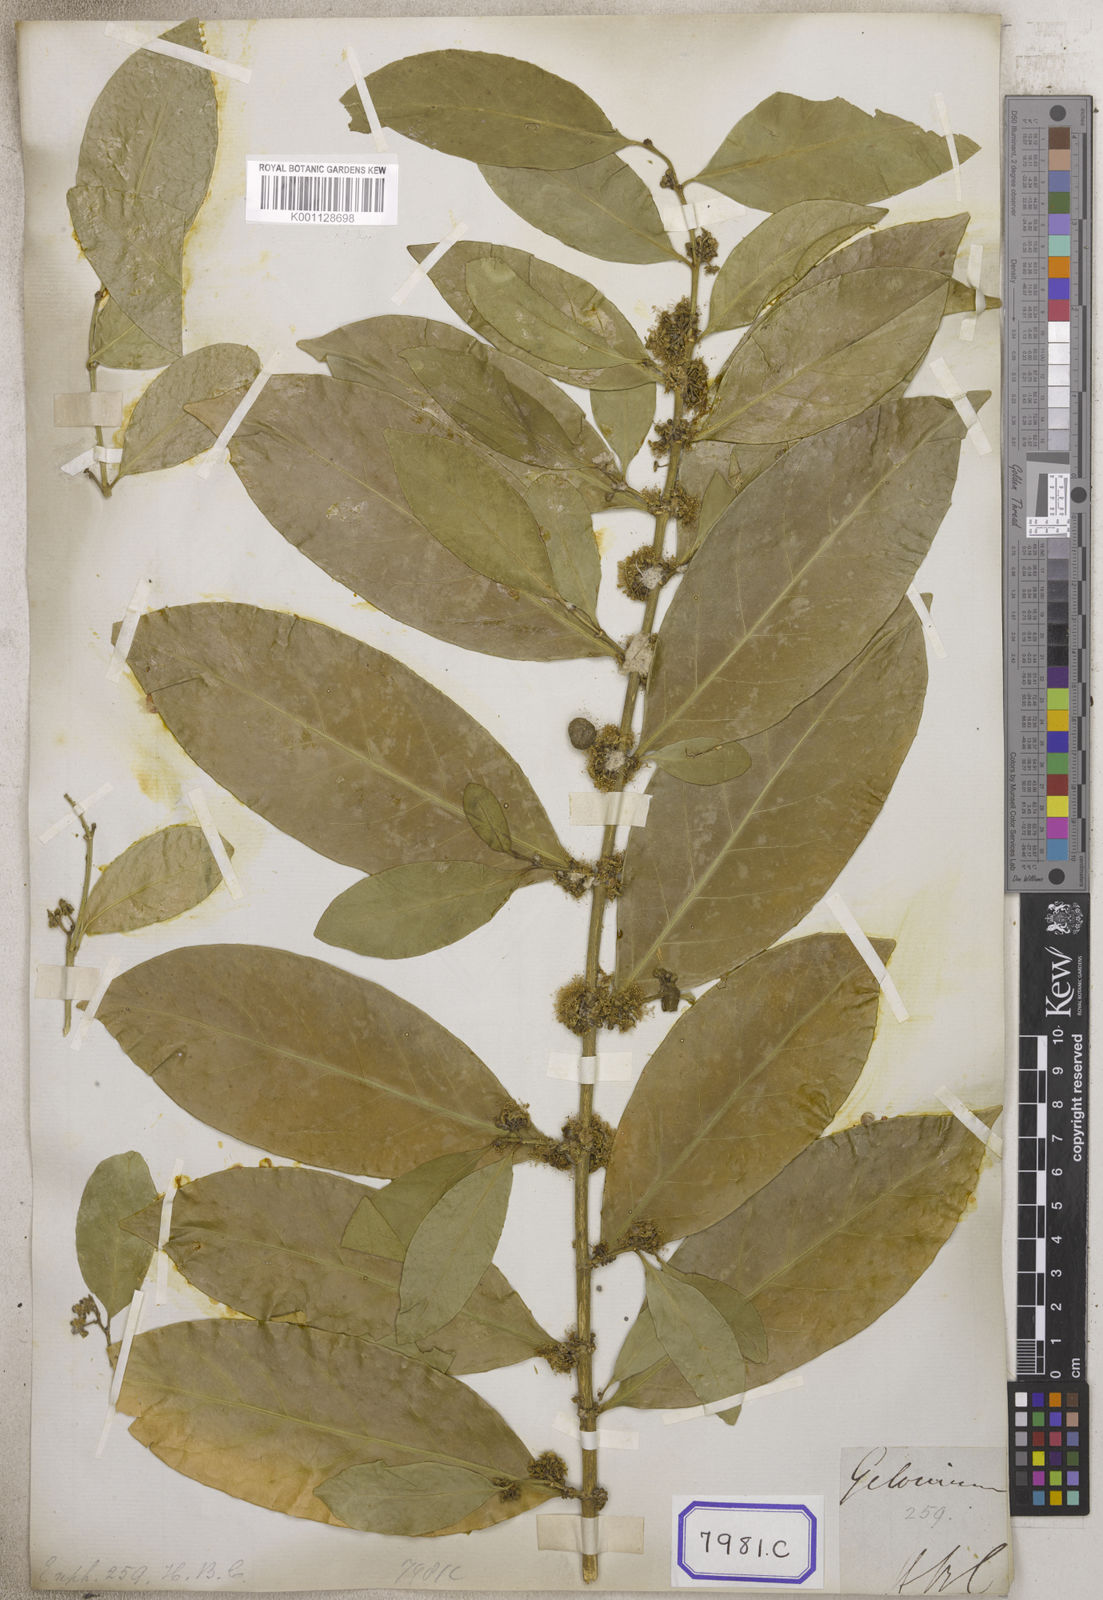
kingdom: Plantae
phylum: Tracheophyta
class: Magnoliopsida
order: Malpighiales
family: Euphorbiaceae
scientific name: Euphorbiaceae
